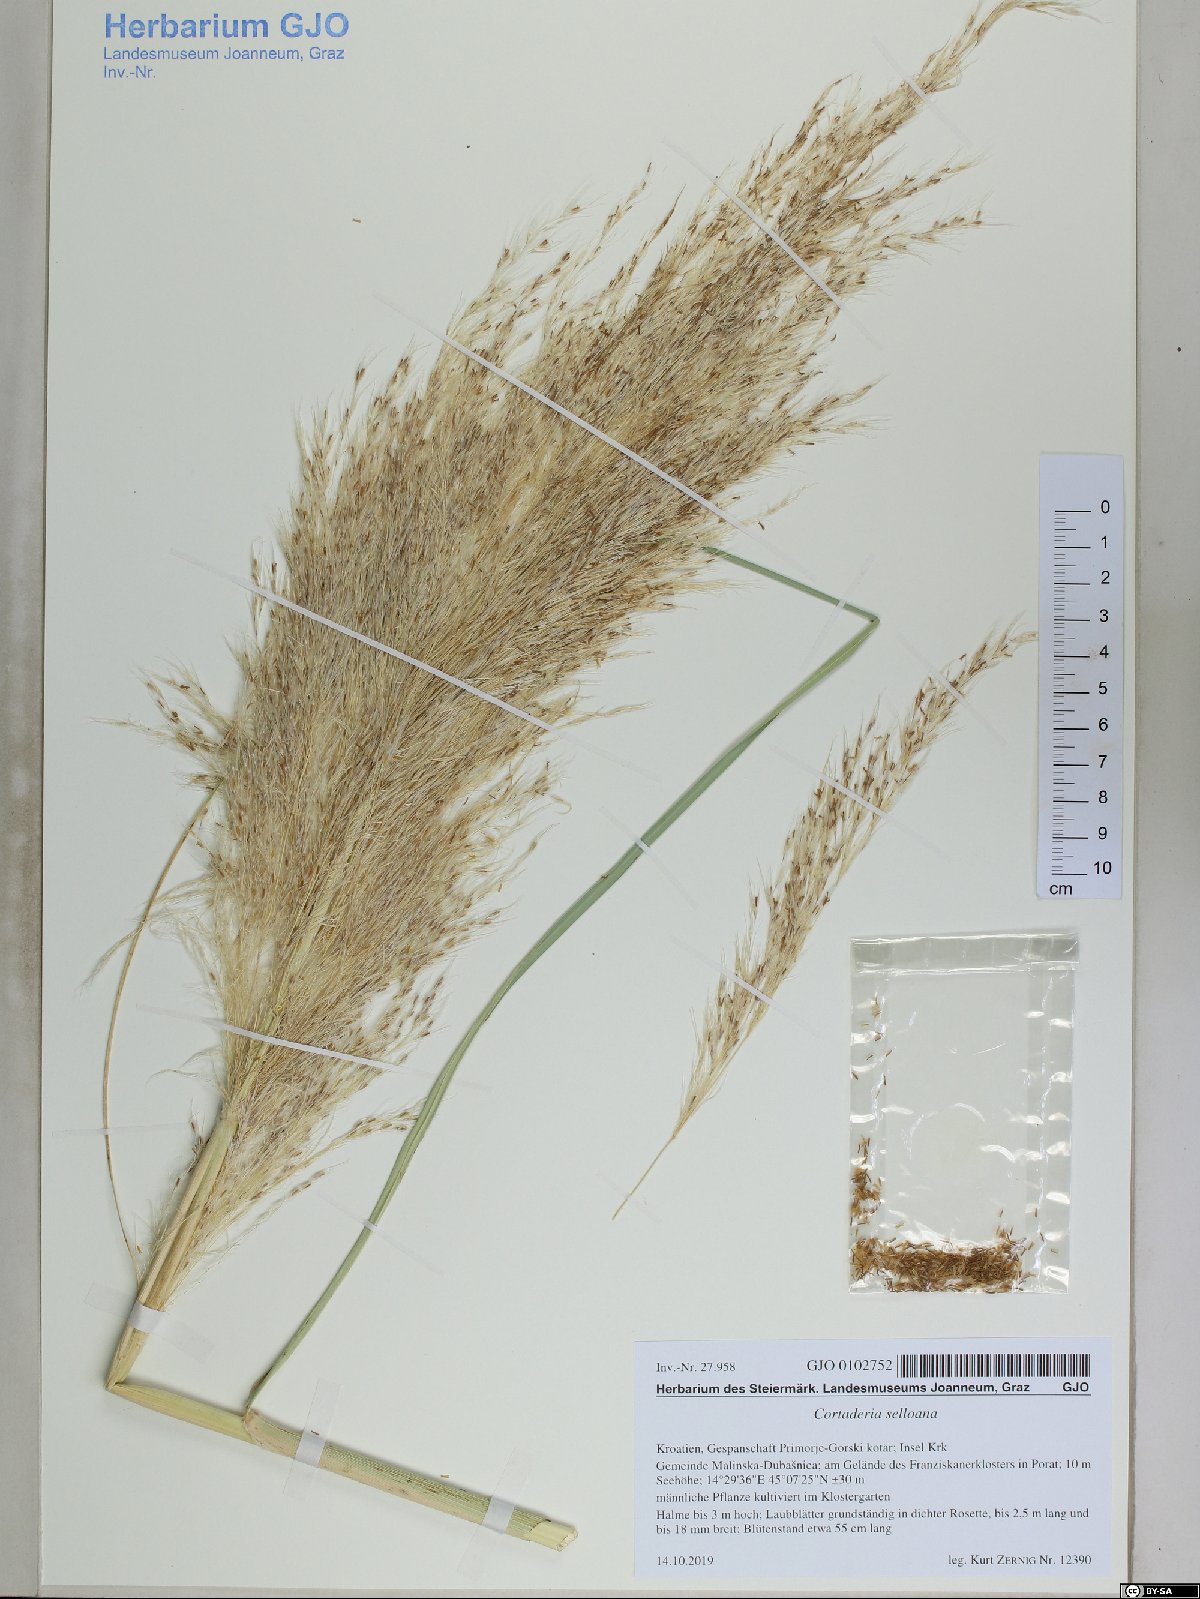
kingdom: Plantae
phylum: Tracheophyta
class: Liliopsida
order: Poales
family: Poaceae
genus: Cortaderia
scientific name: Cortaderia selloana
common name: Uruguayan pampas grass
